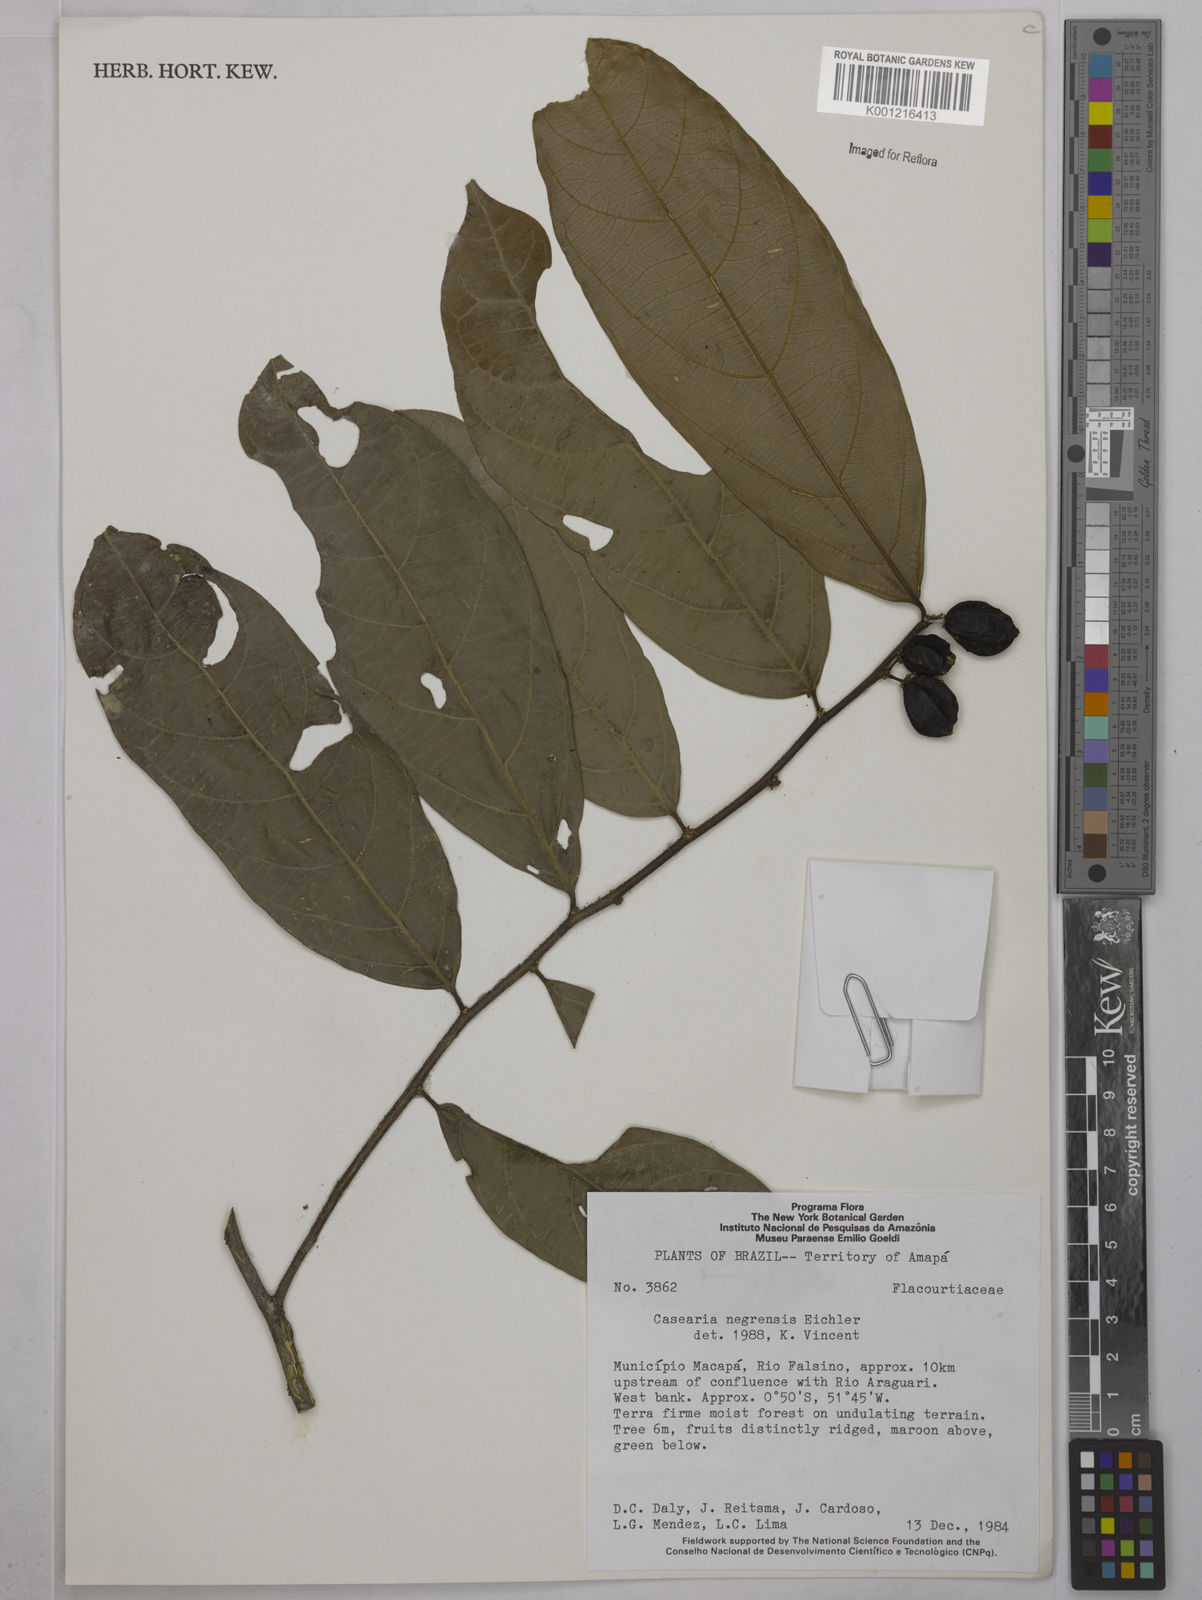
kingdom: Plantae
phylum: Tracheophyta
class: Magnoliopsida
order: Malpighiales
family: Salicaceae
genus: Casearia
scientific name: Casearia negrensis
